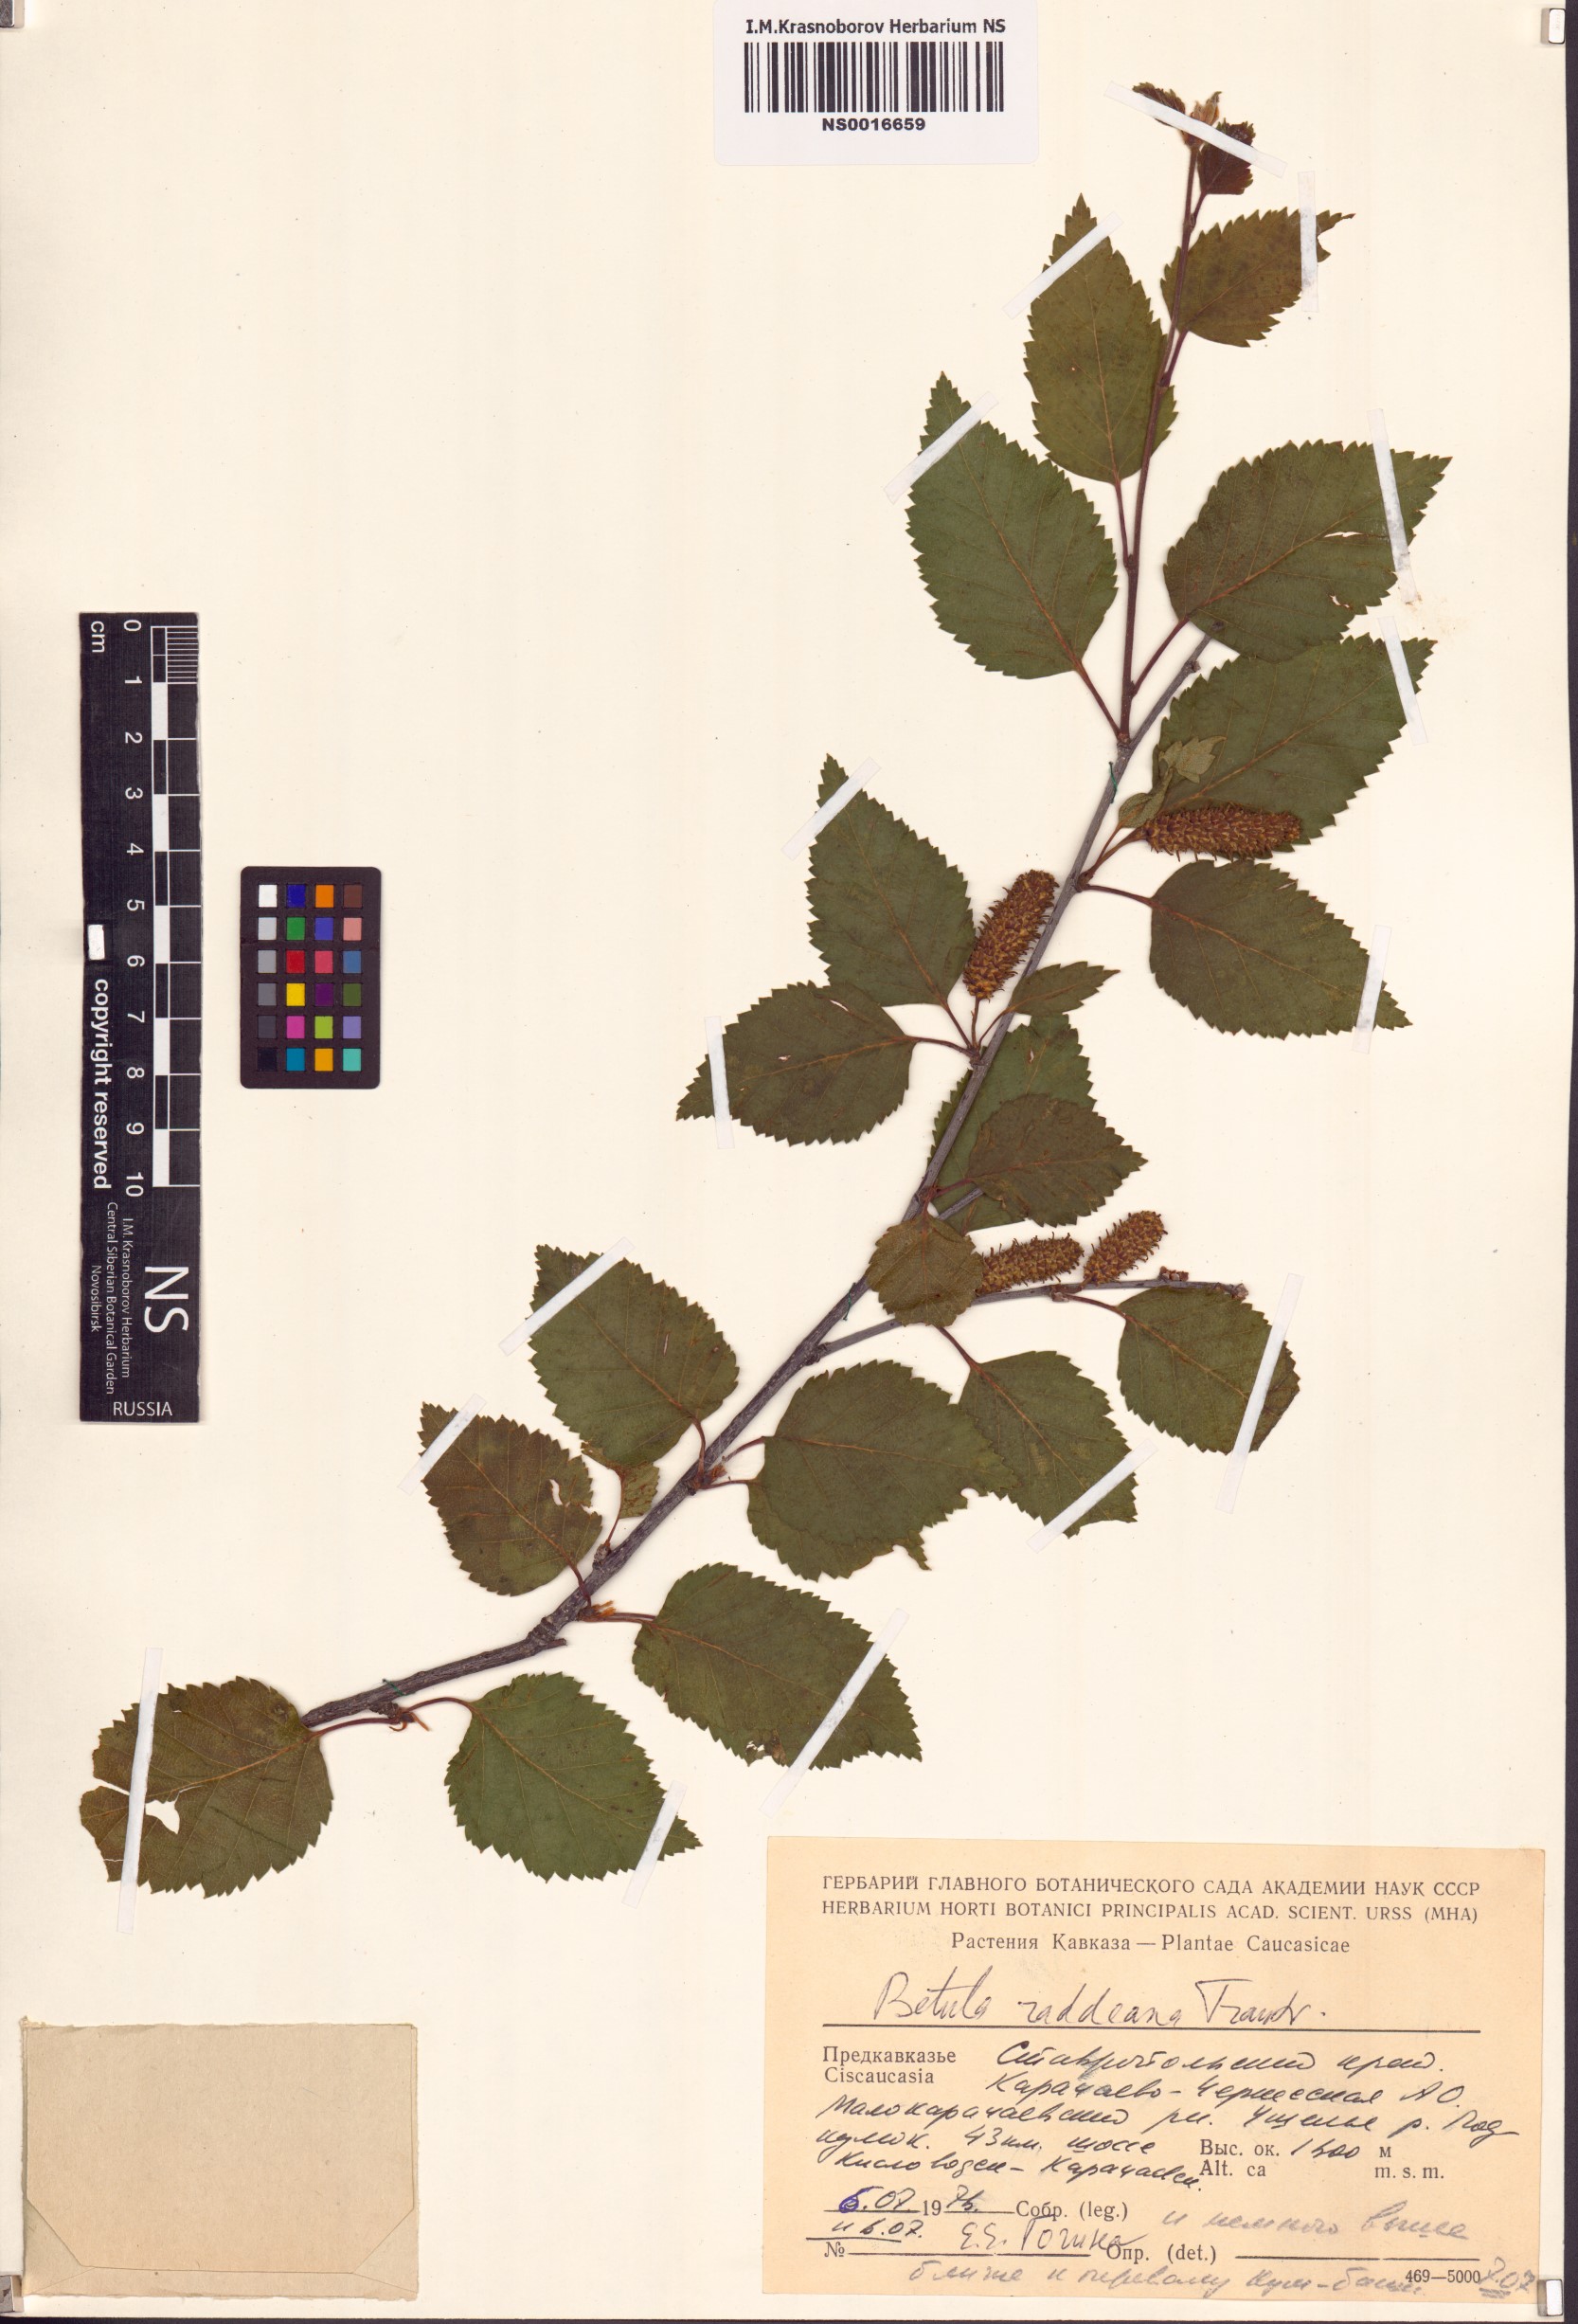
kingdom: Plantae
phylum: Tracheophyta
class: Magnoliopsida
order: Fagales
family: Betulaceae
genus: Betula
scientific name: Betula raddeana
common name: Radde's birch
